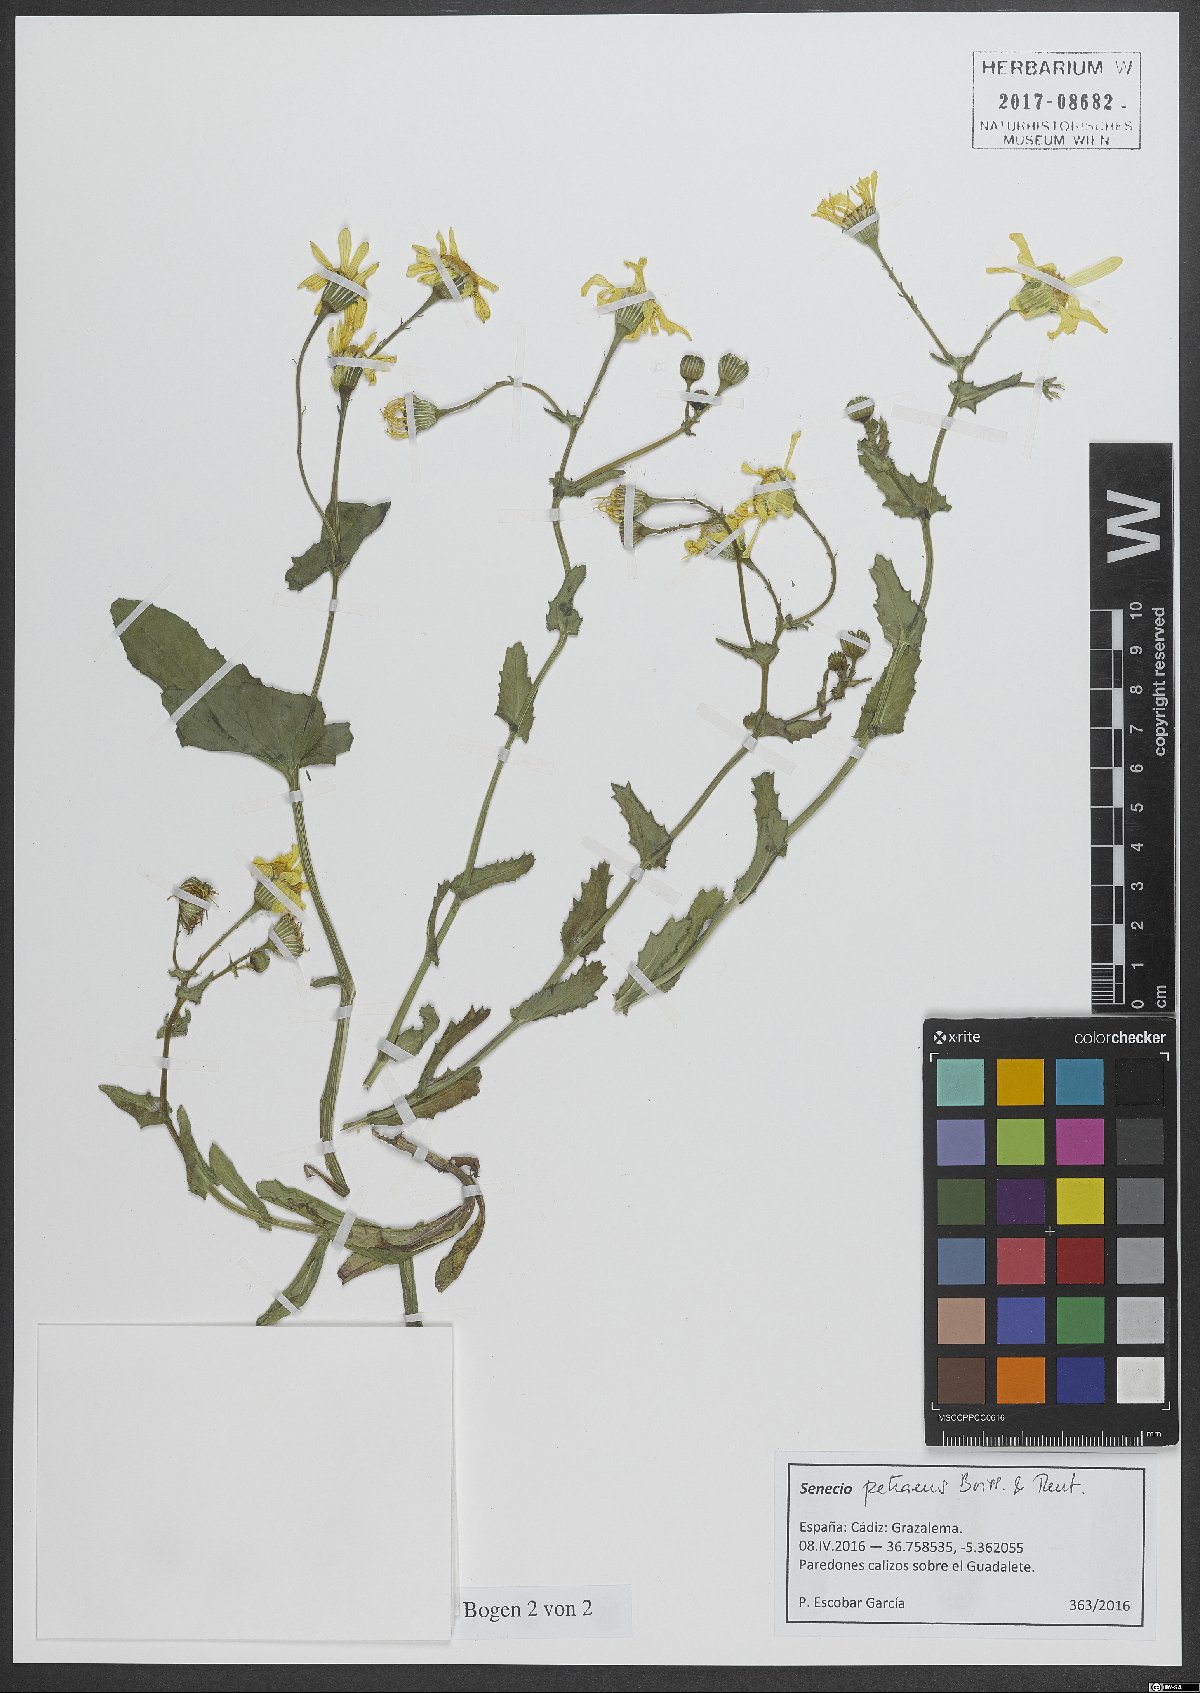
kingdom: Plantae
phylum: Tracheophyta
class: Magnoliopsida
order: Asterales
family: Asteraceae
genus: Senecio
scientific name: Senecio petraeus
